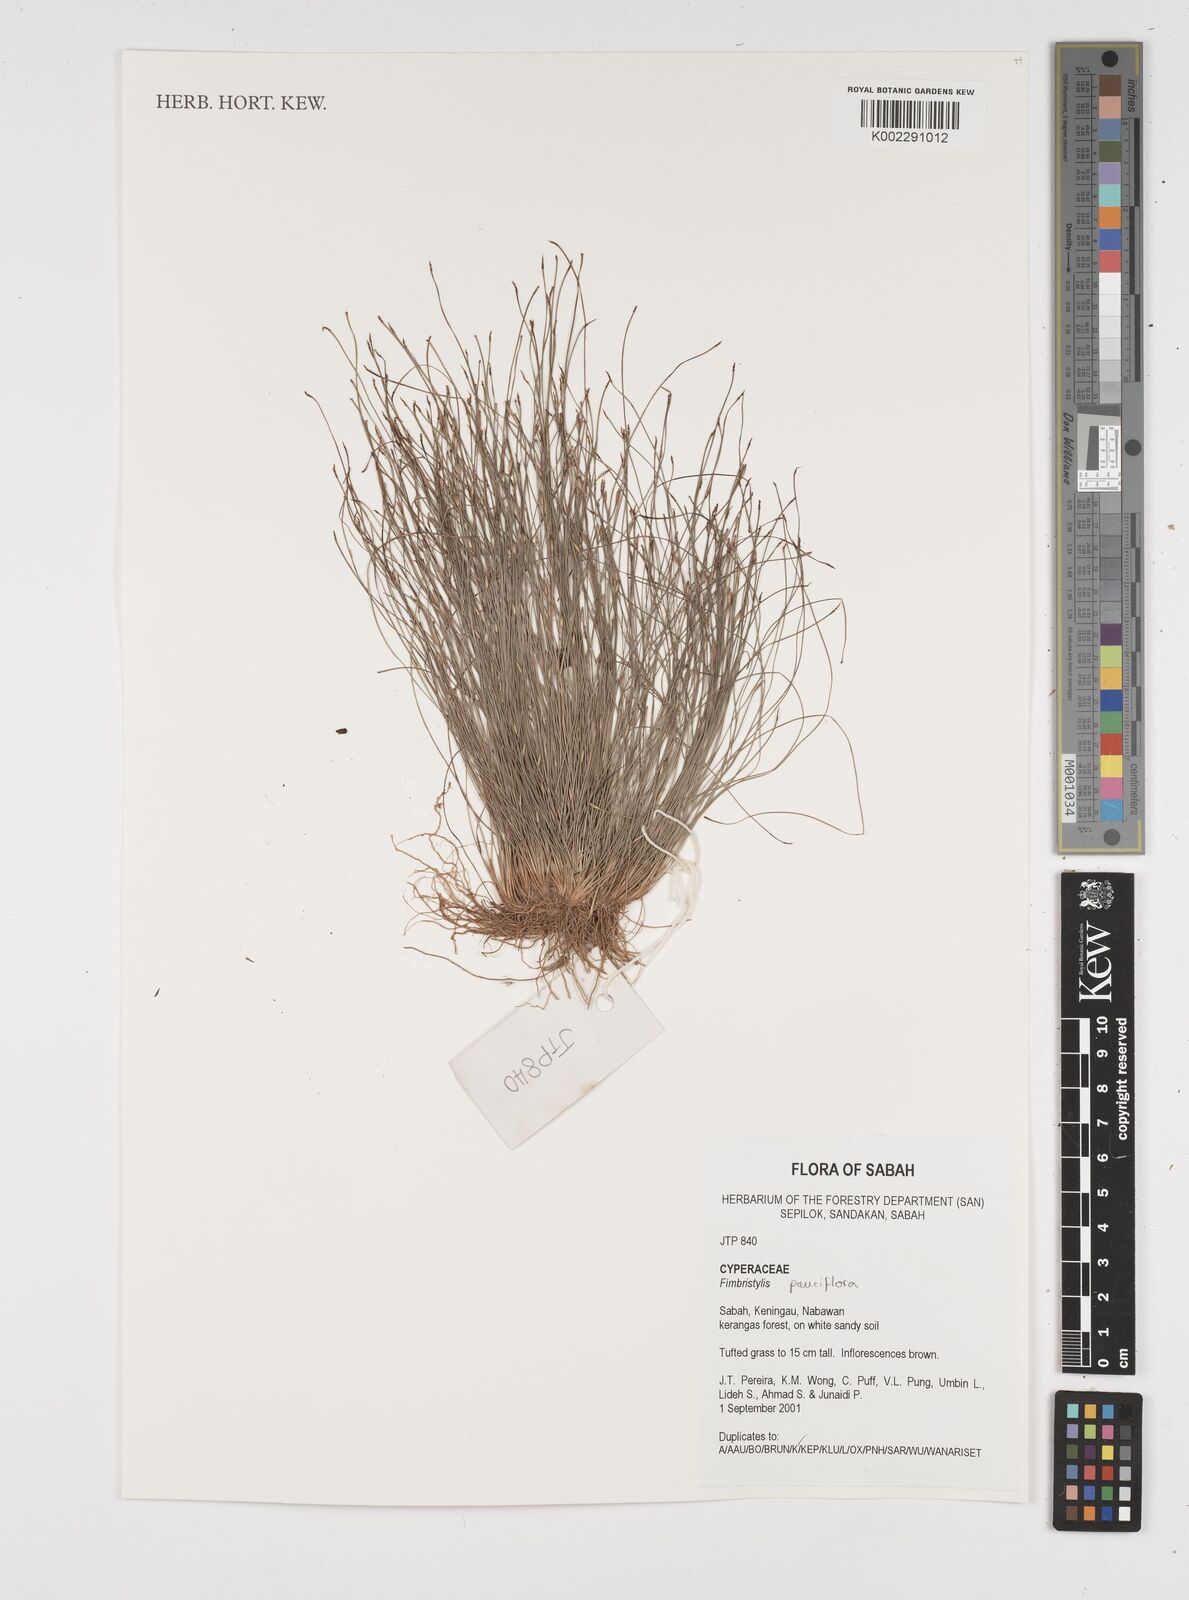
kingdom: Plantae
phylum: Tracheophyta
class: Liliopsida
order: Poales
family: Cyperaceae
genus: Fimbristylis
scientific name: Fimbristylis pauciflora
